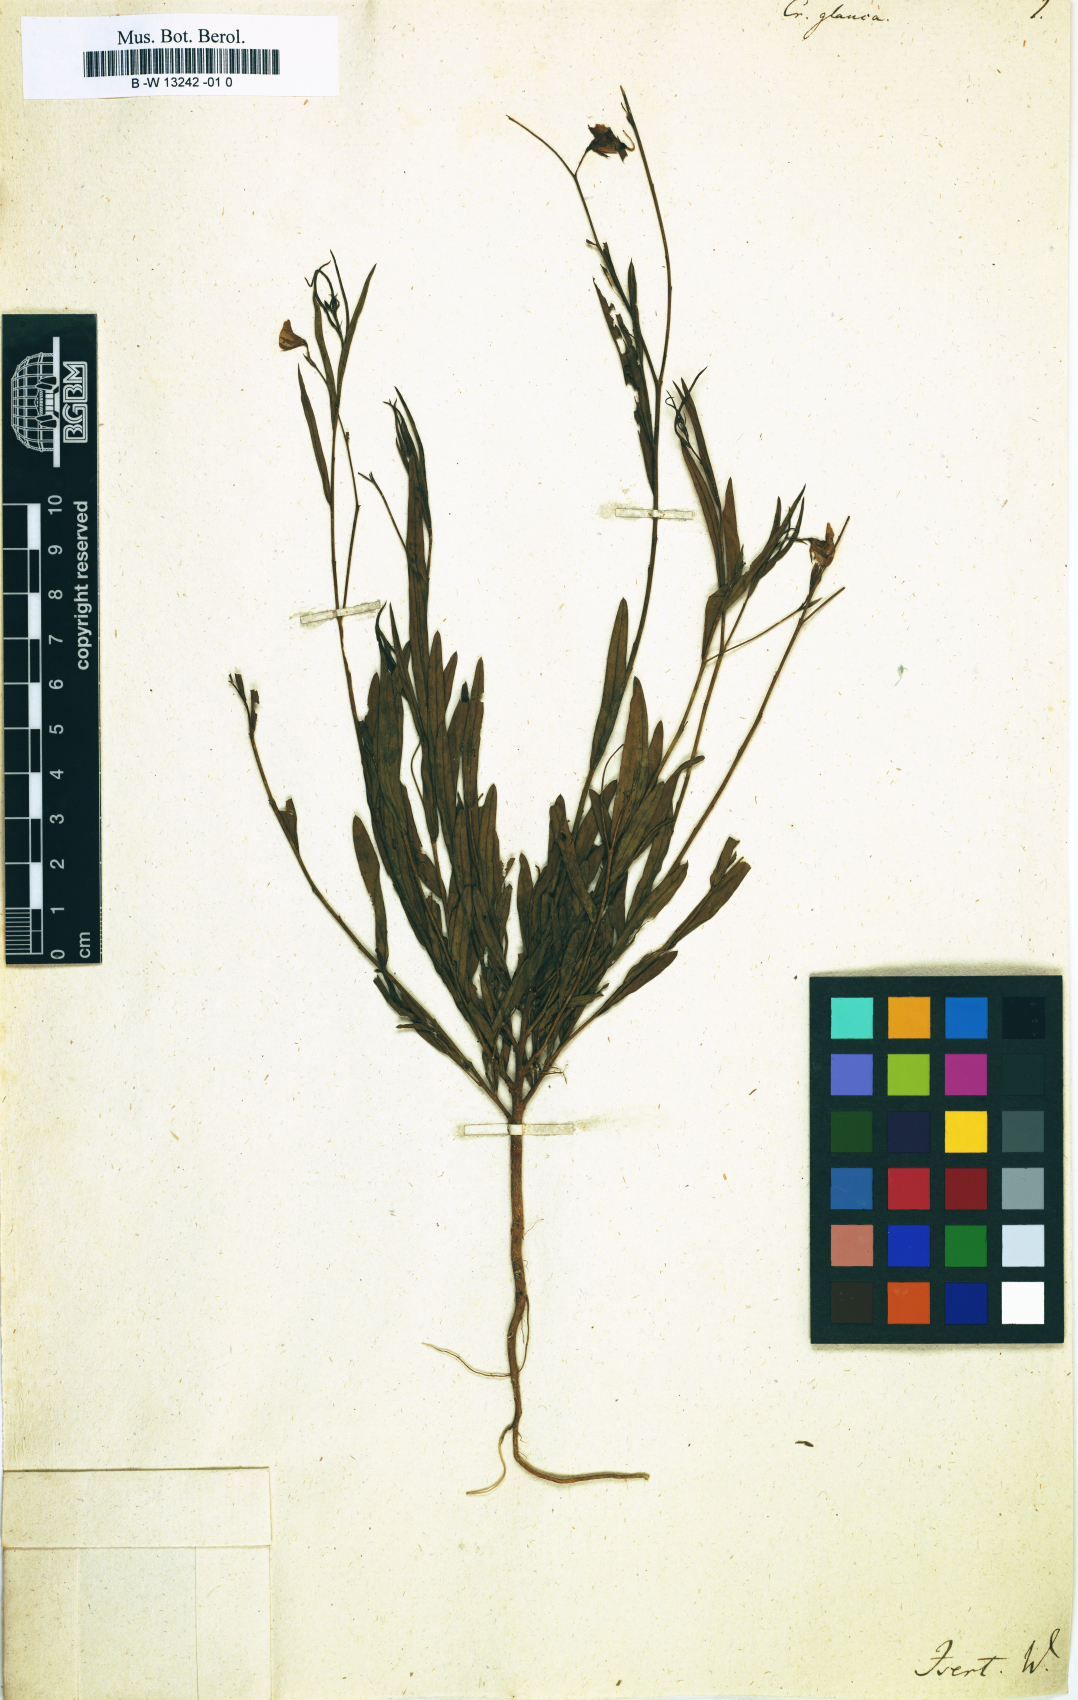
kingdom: Plantae
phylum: Tracheophyta
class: Magnoliopsida
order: Fabales
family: Fabaceae
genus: Crotalaria
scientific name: Crotalaria glauca
